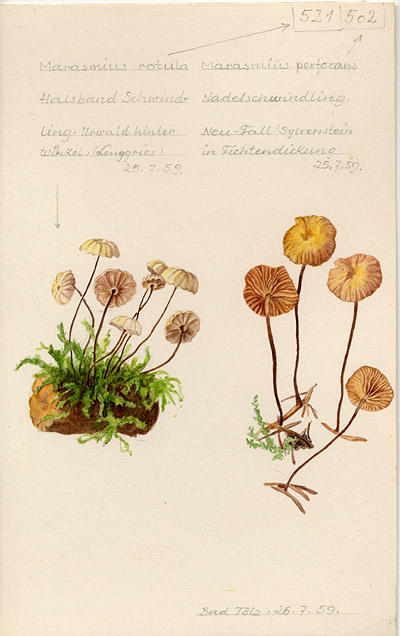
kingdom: Fungi
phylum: Basidiomycota
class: Agaricomycetes
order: Agaricales
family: Marasmiaceae
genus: Marasmius
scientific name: Marasmius rotula
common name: Collared parachute
